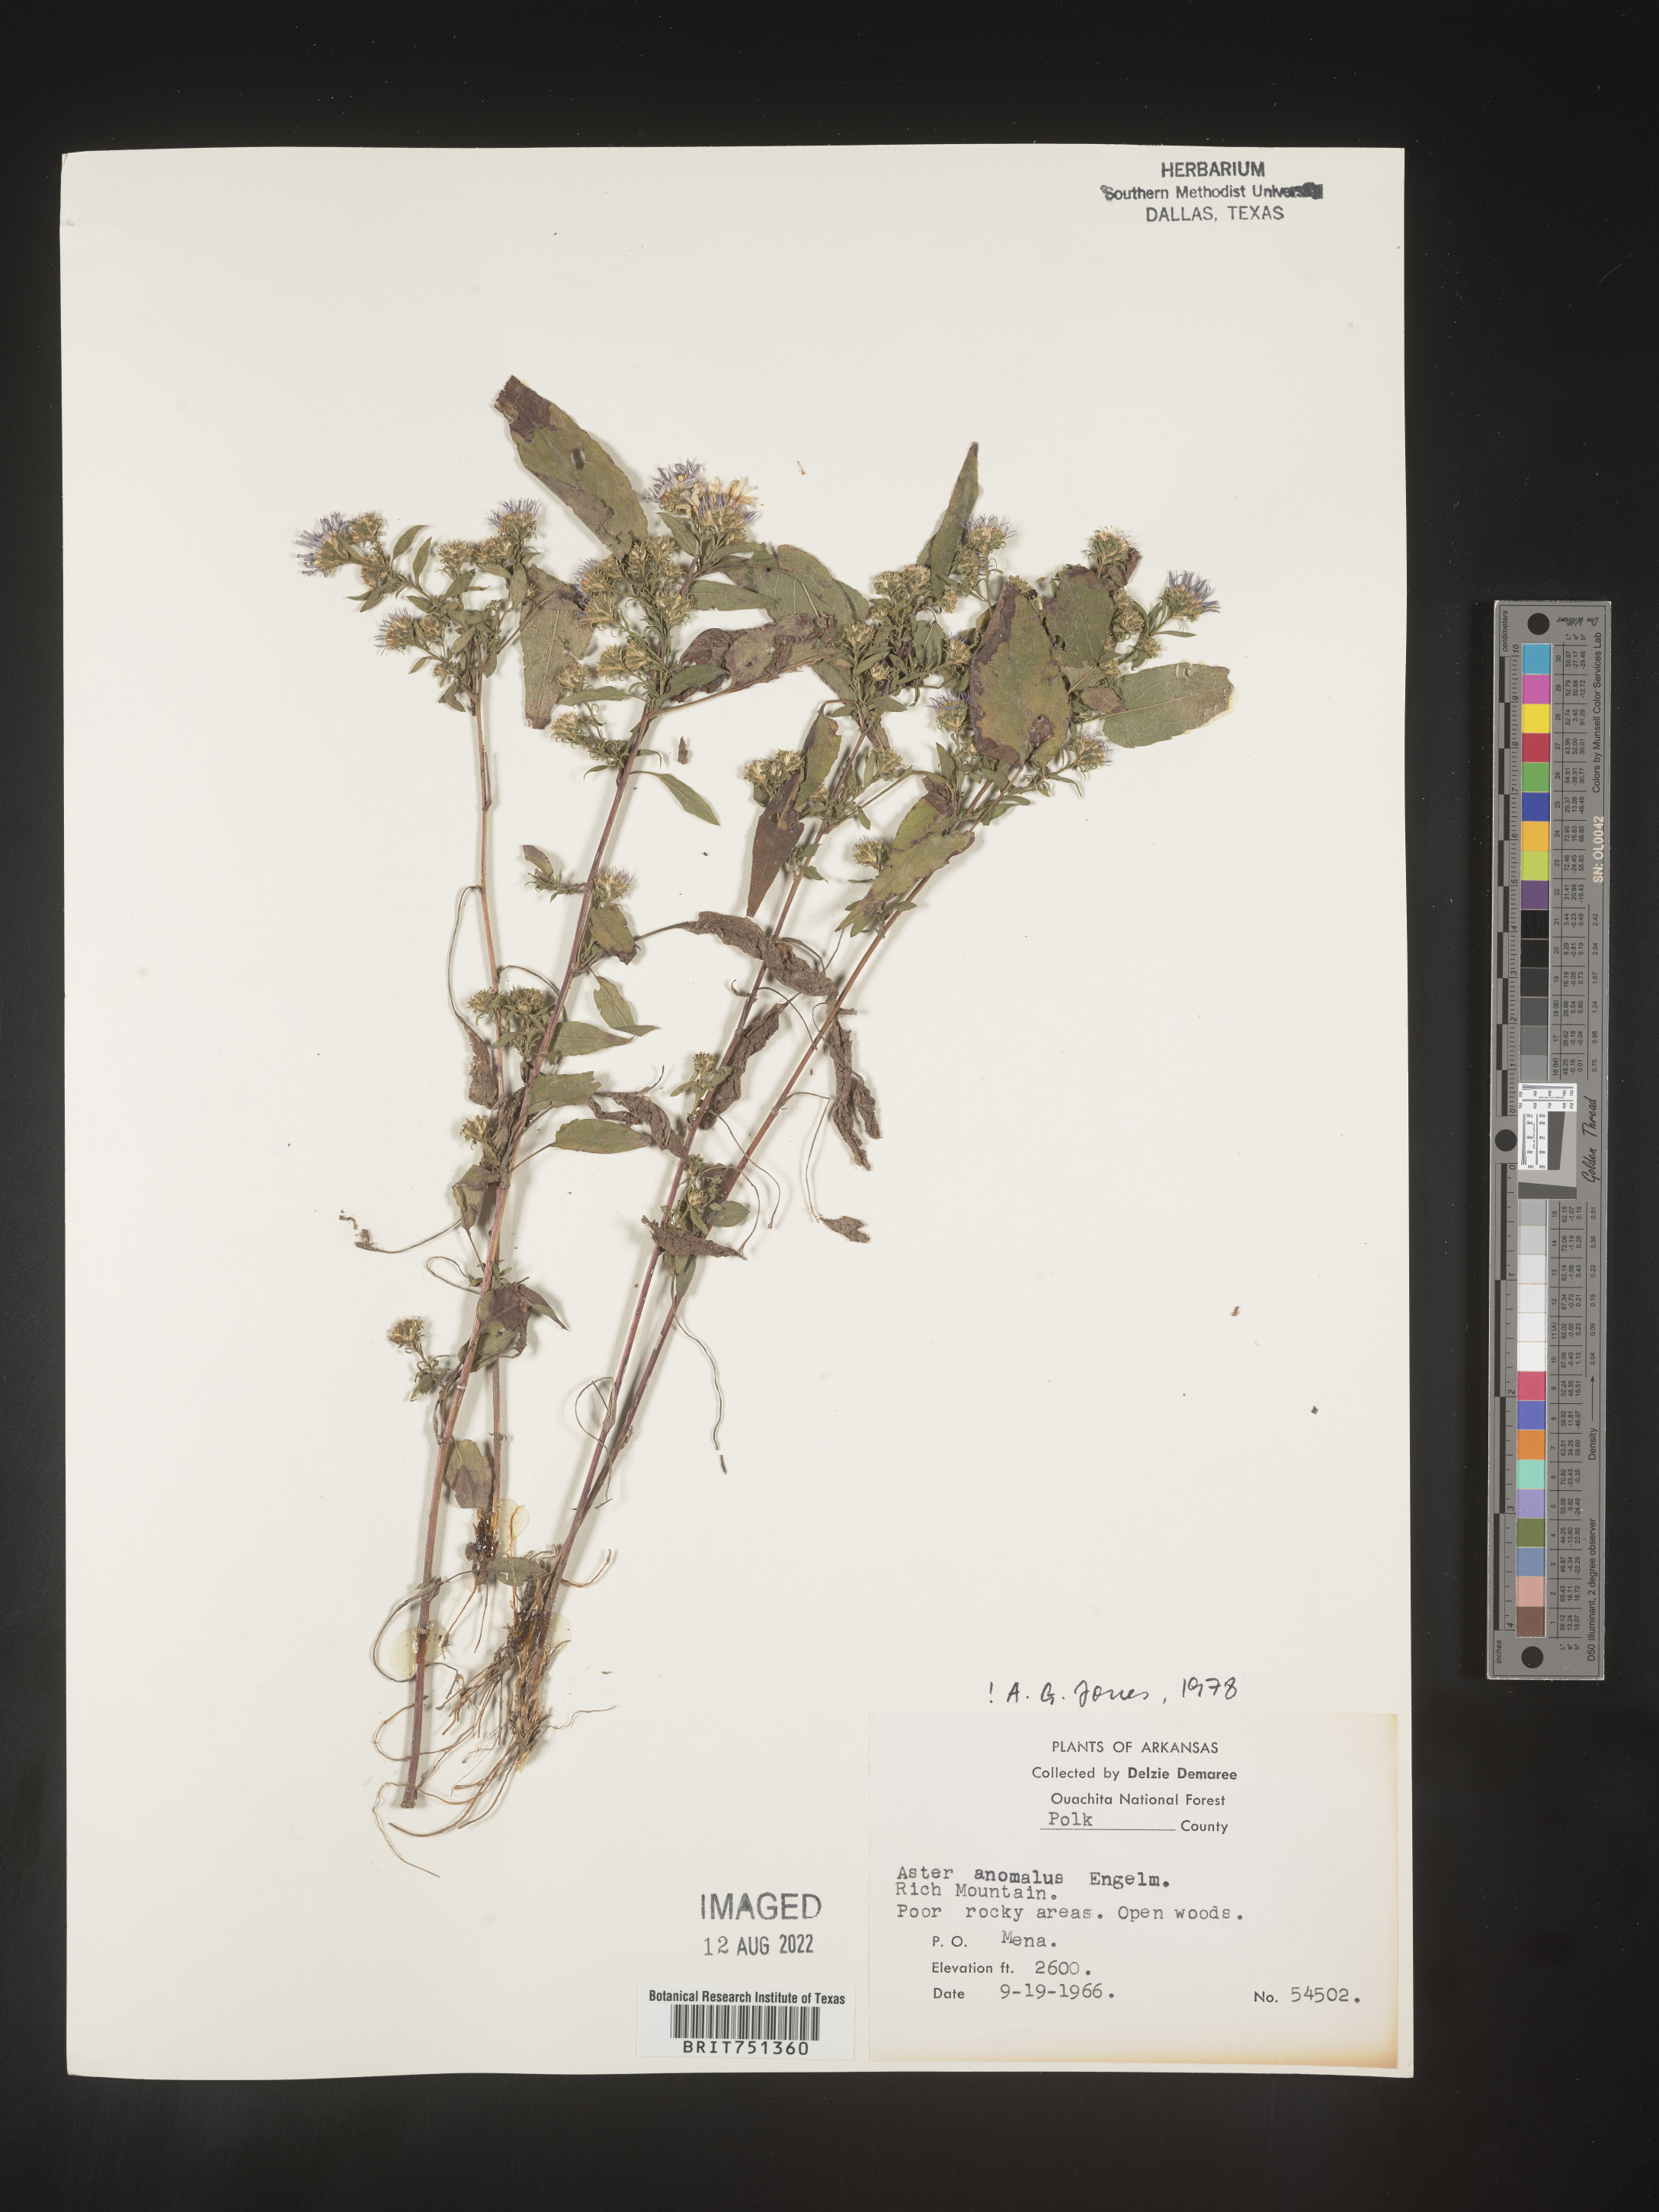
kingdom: Plantae
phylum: Tracheophyta
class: Magnoliopsida
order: Asterales
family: Asteraceae
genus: Symphyotrichum
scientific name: Symphyotrichum anomalum
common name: Many-ray aster
